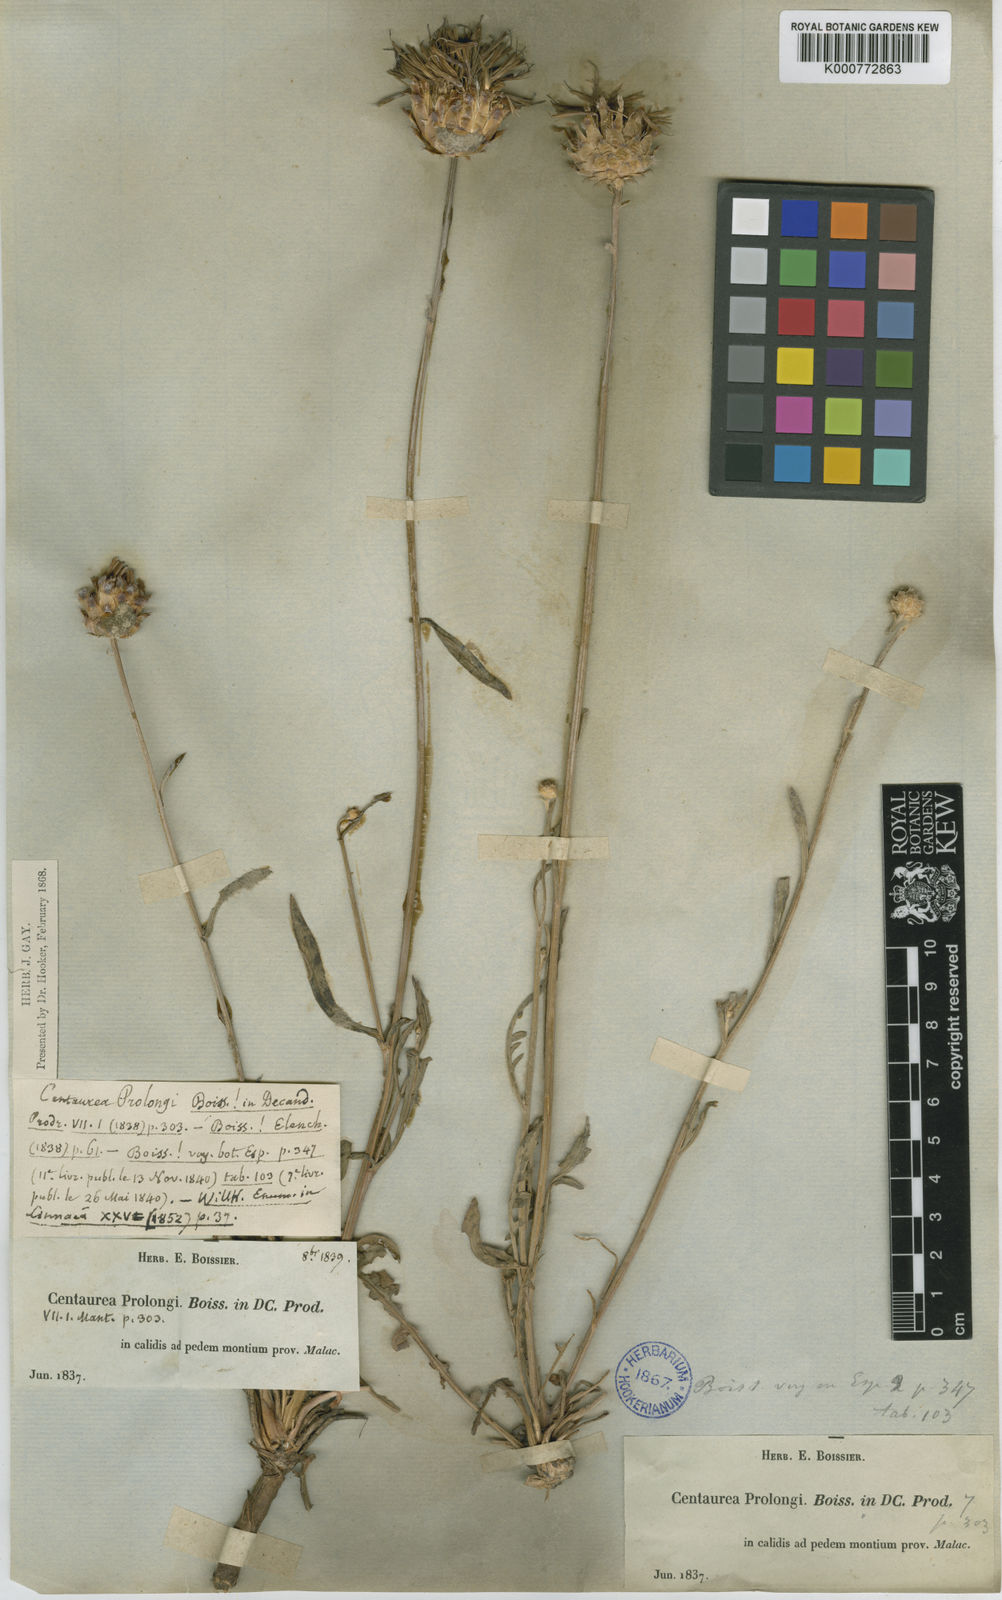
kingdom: Plantae
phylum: Tracheophyta
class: Magnoliopsida
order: Asterales
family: Asteraceae
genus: Centaurea
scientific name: Centaurea
